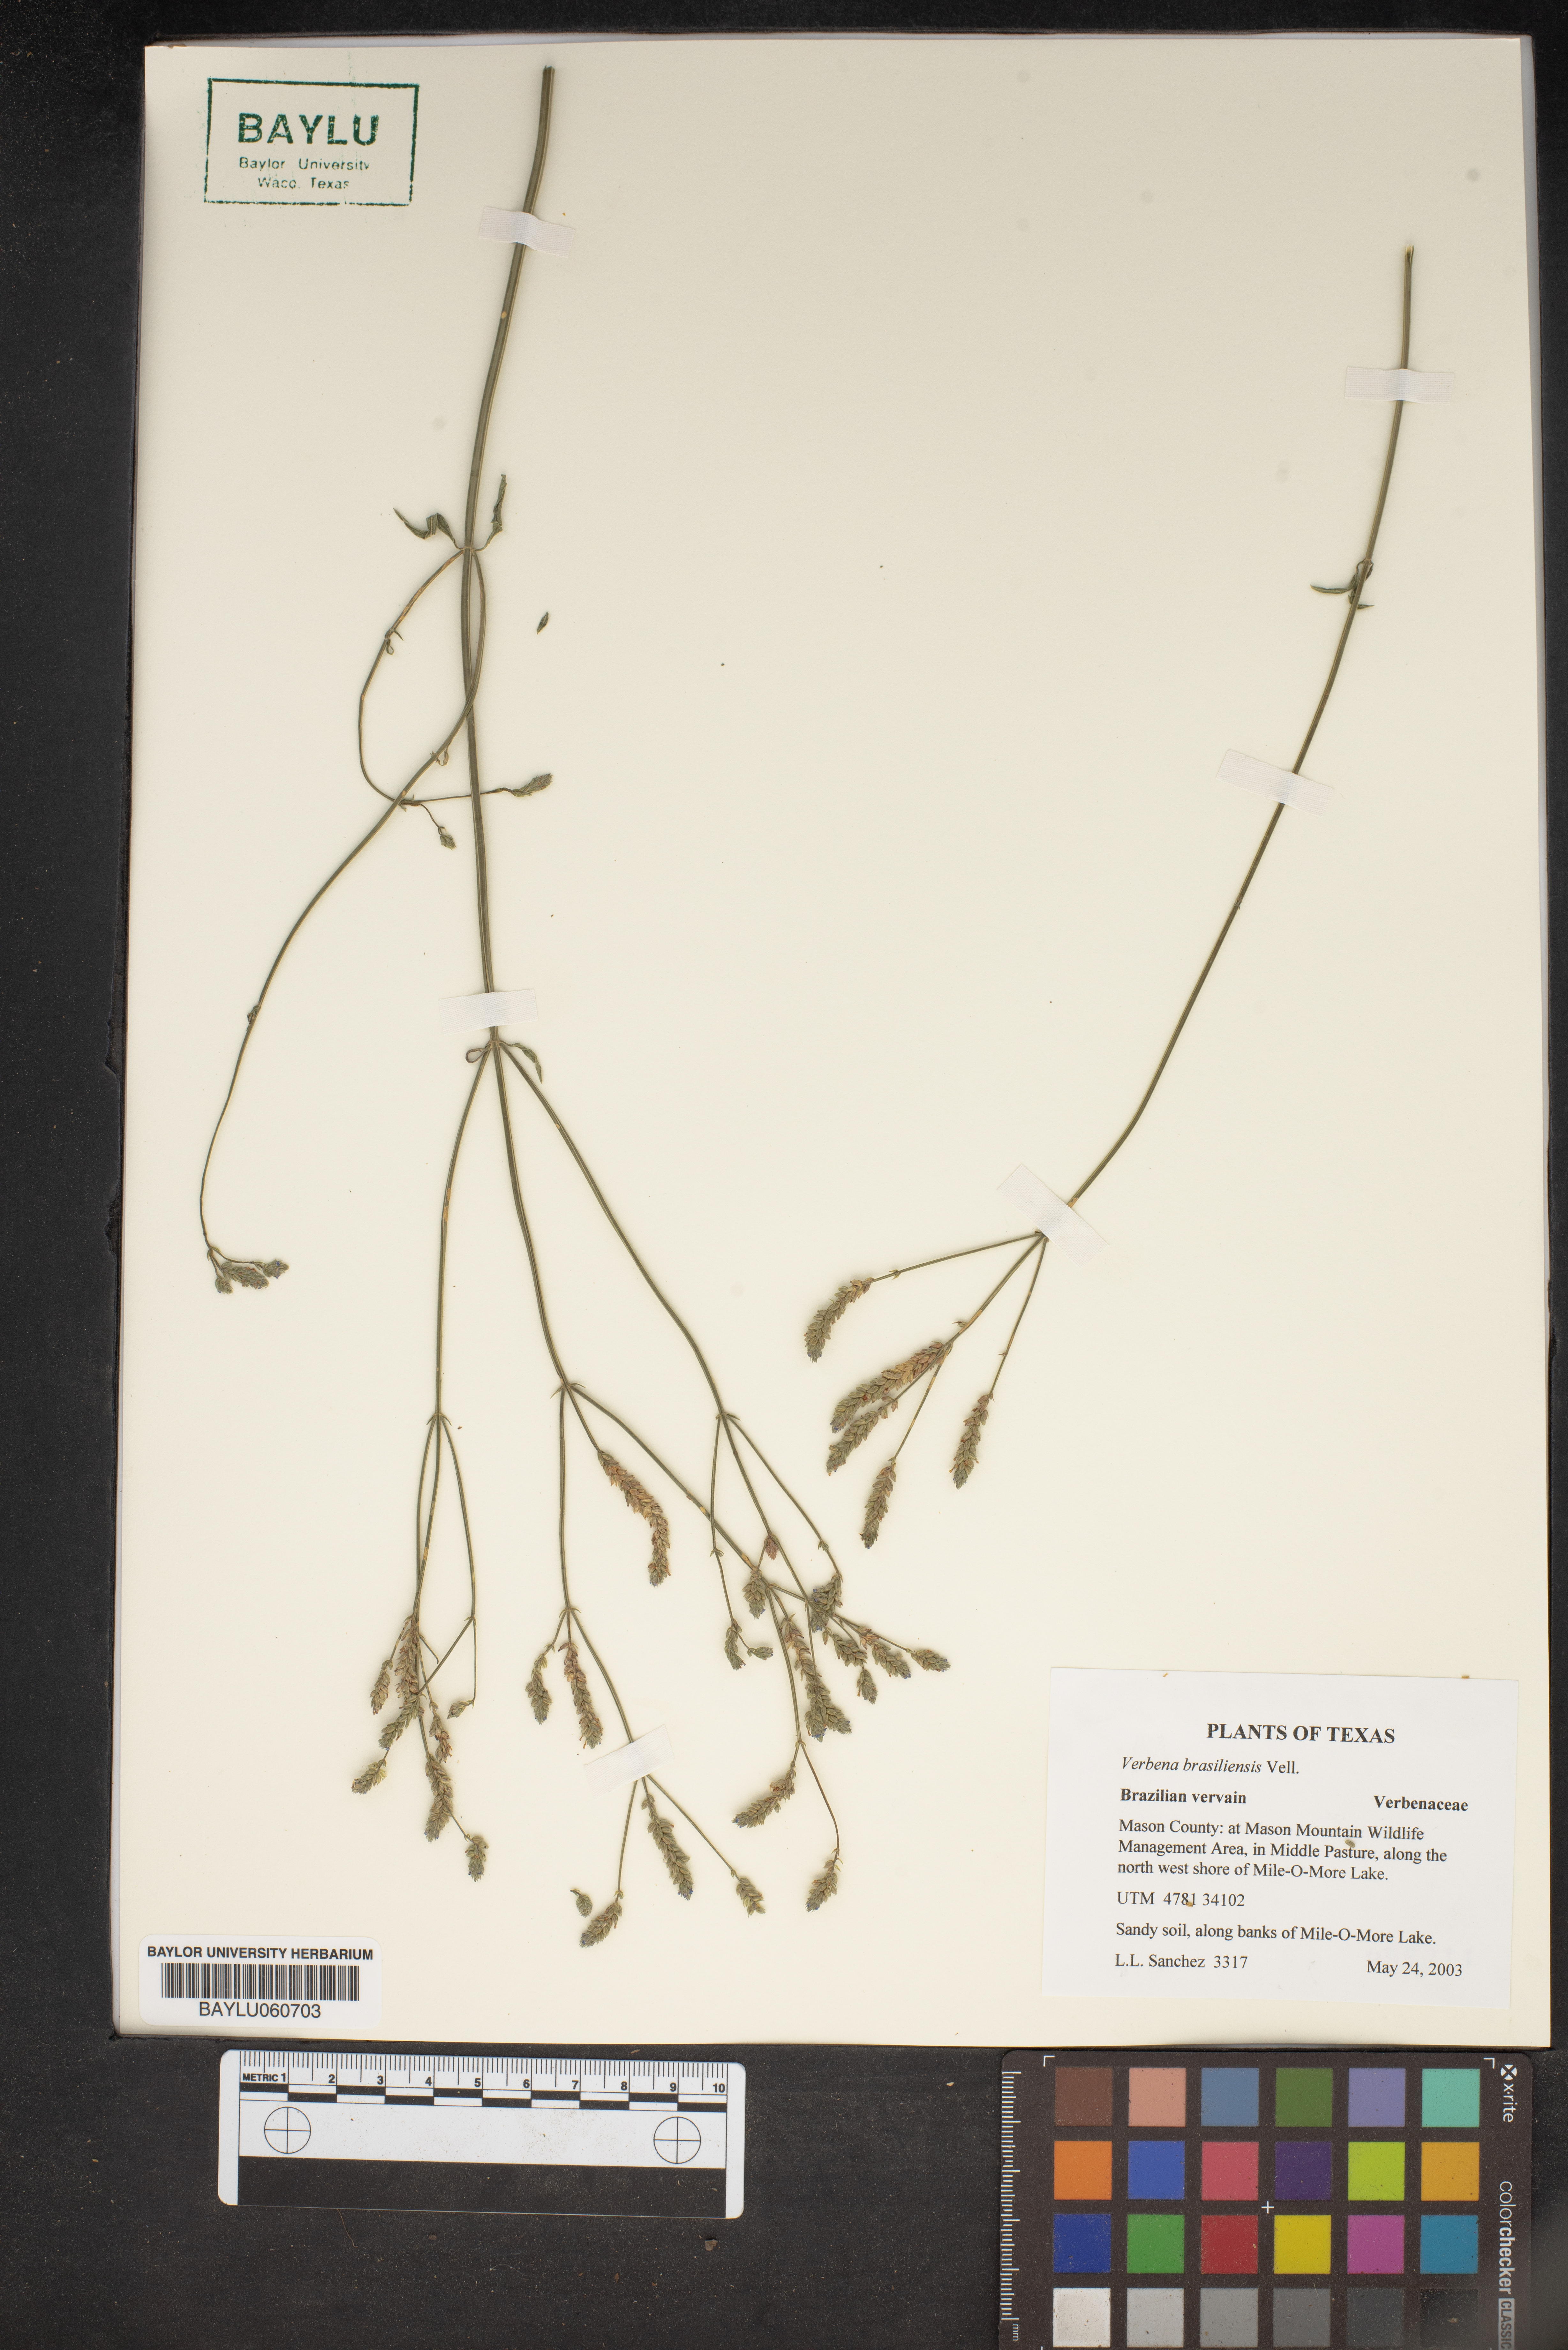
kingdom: Plantae
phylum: Tracheophyta
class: Magnoliopsida
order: Lamiales
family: Verbenaceae
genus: Verbena
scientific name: Verbena brasiliensis
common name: Brazilian vervain
